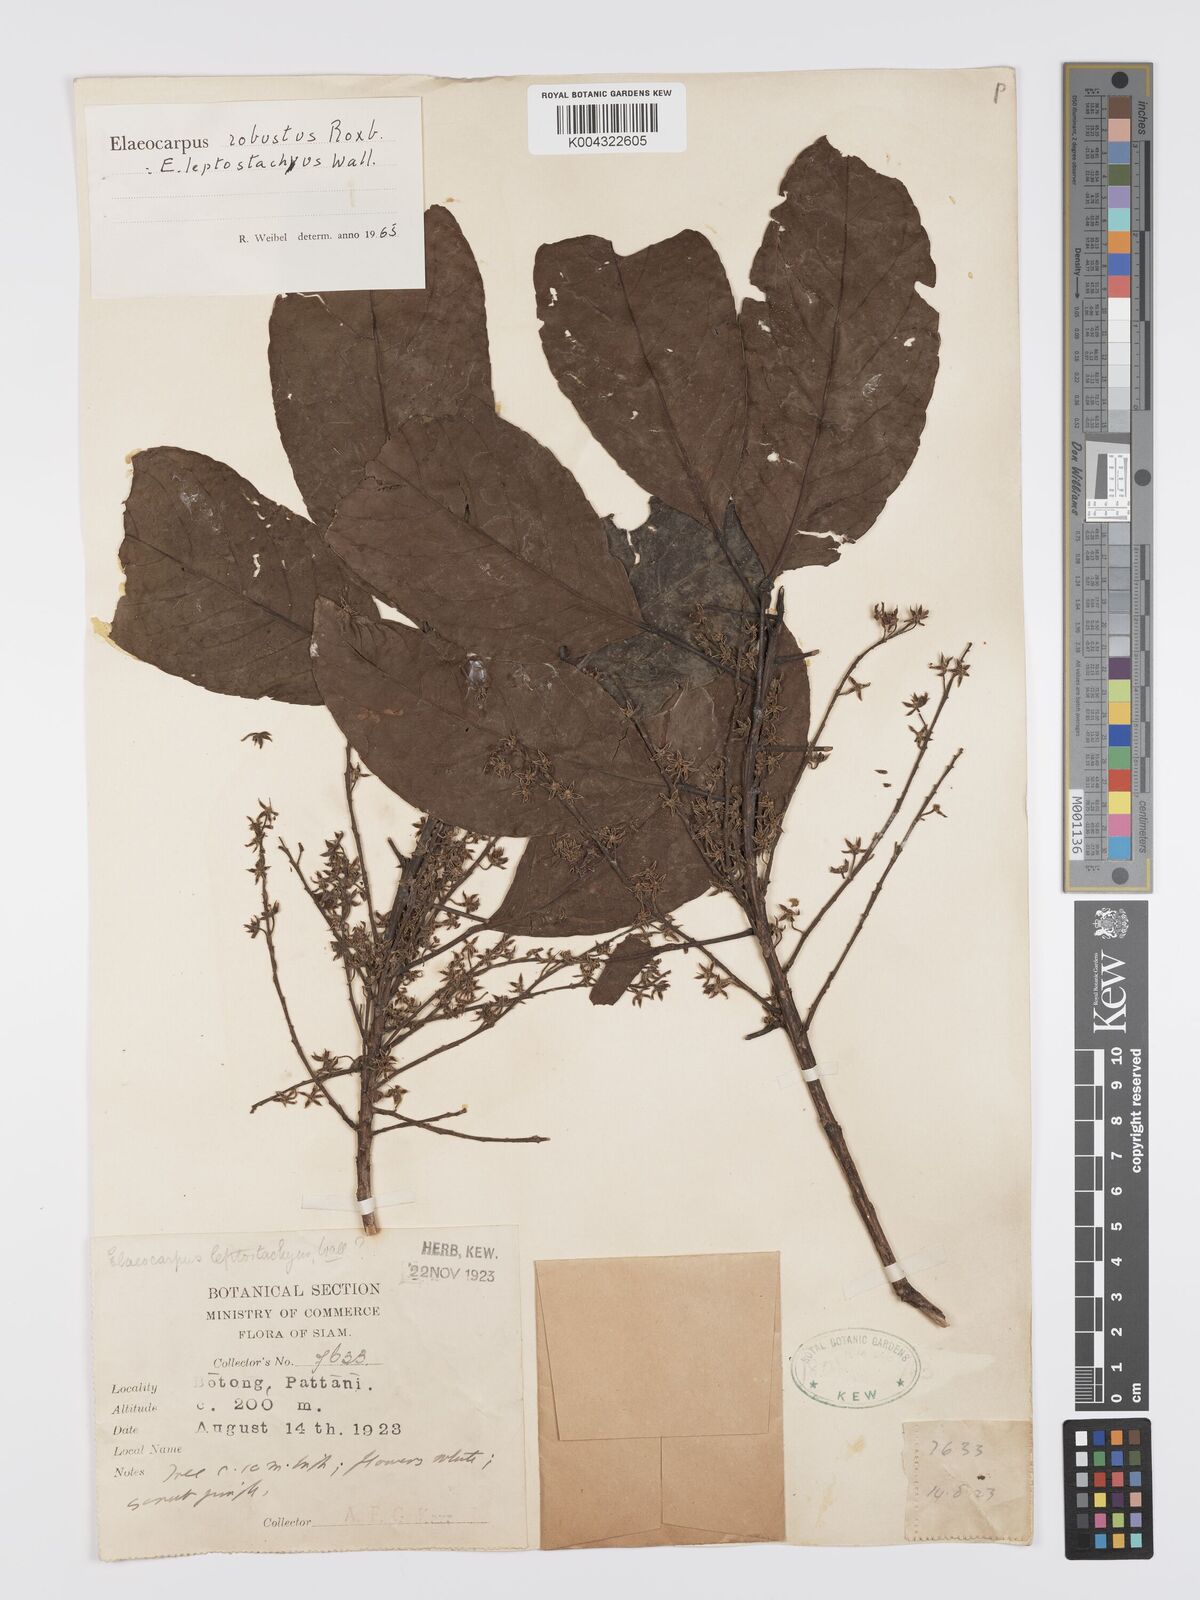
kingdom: Plantae
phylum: Tracheophyta
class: Magnoliopsida
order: Oxalidales
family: Elaeocarpaceae
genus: Elaeocarpus
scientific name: Elaeocarpus robustus
